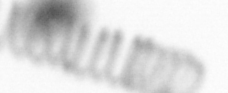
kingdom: Chromista
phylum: Ochrophyta
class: Bacillariophyceae
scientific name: Bacillariophyceae
